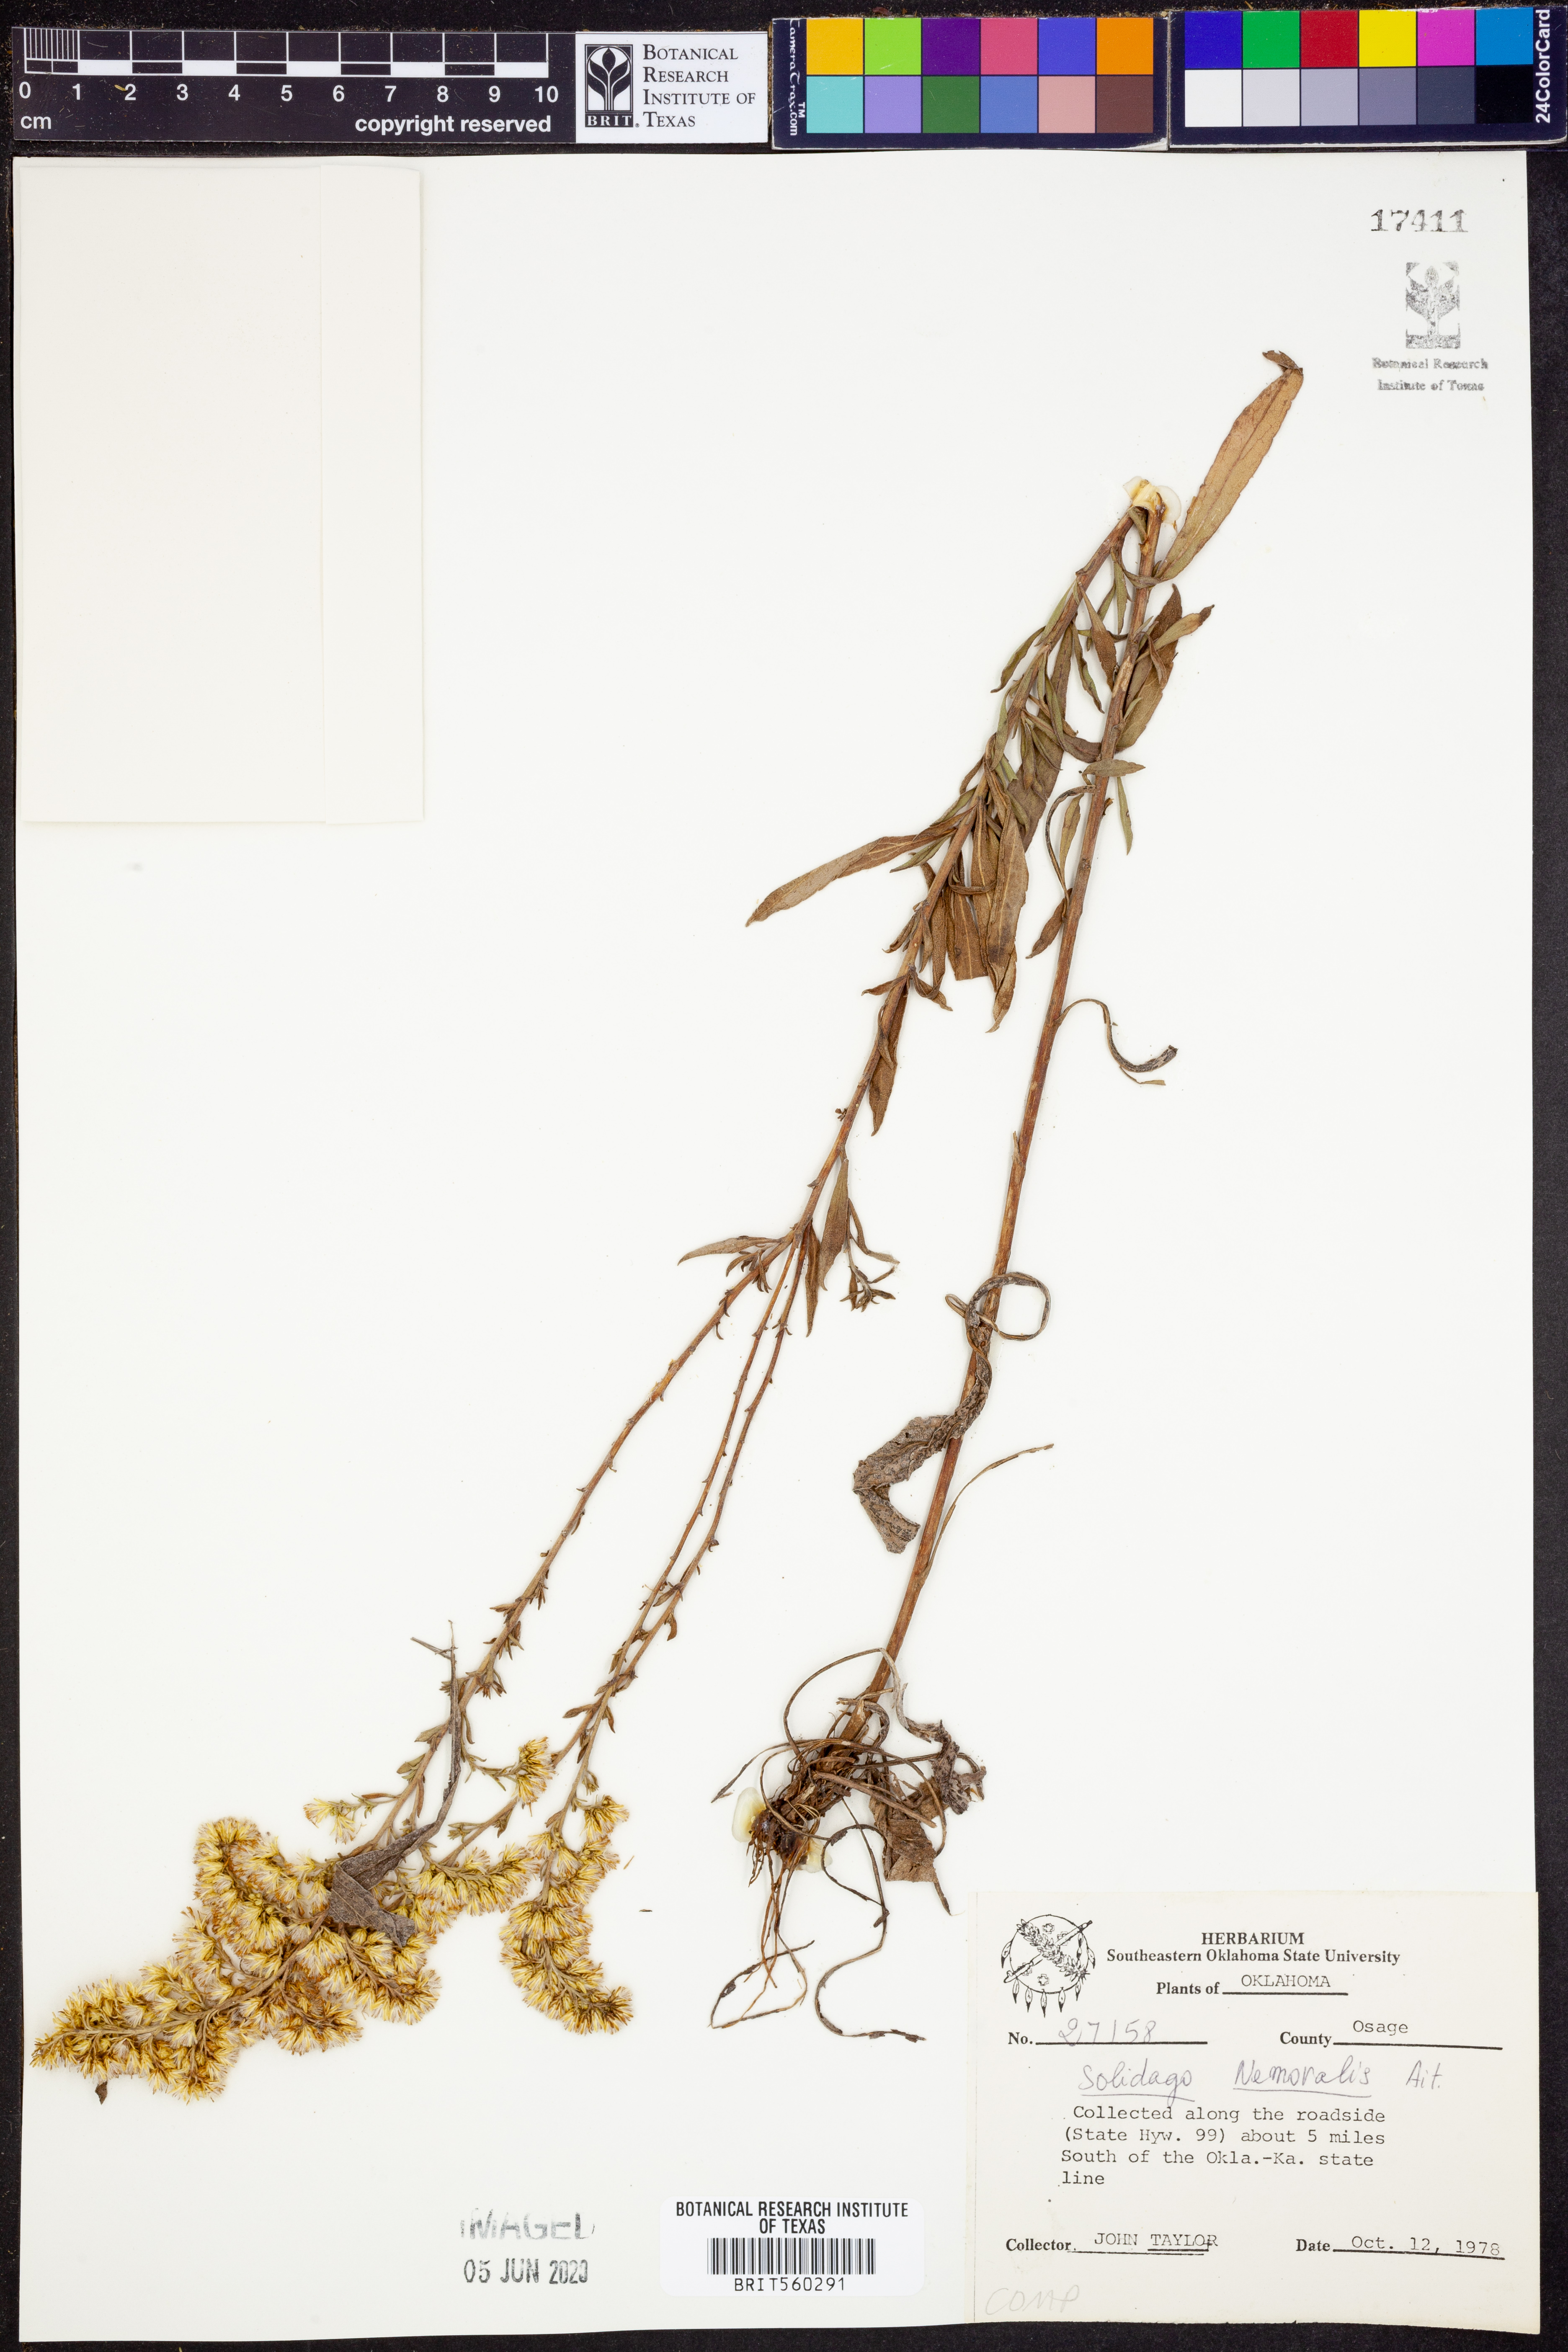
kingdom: Plantae
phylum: Tracheophyta
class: Magnoliopsida
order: Asterales
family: Asteraceae
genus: Solidago
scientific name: Solidago nemoralis
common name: Grey goldenrod
